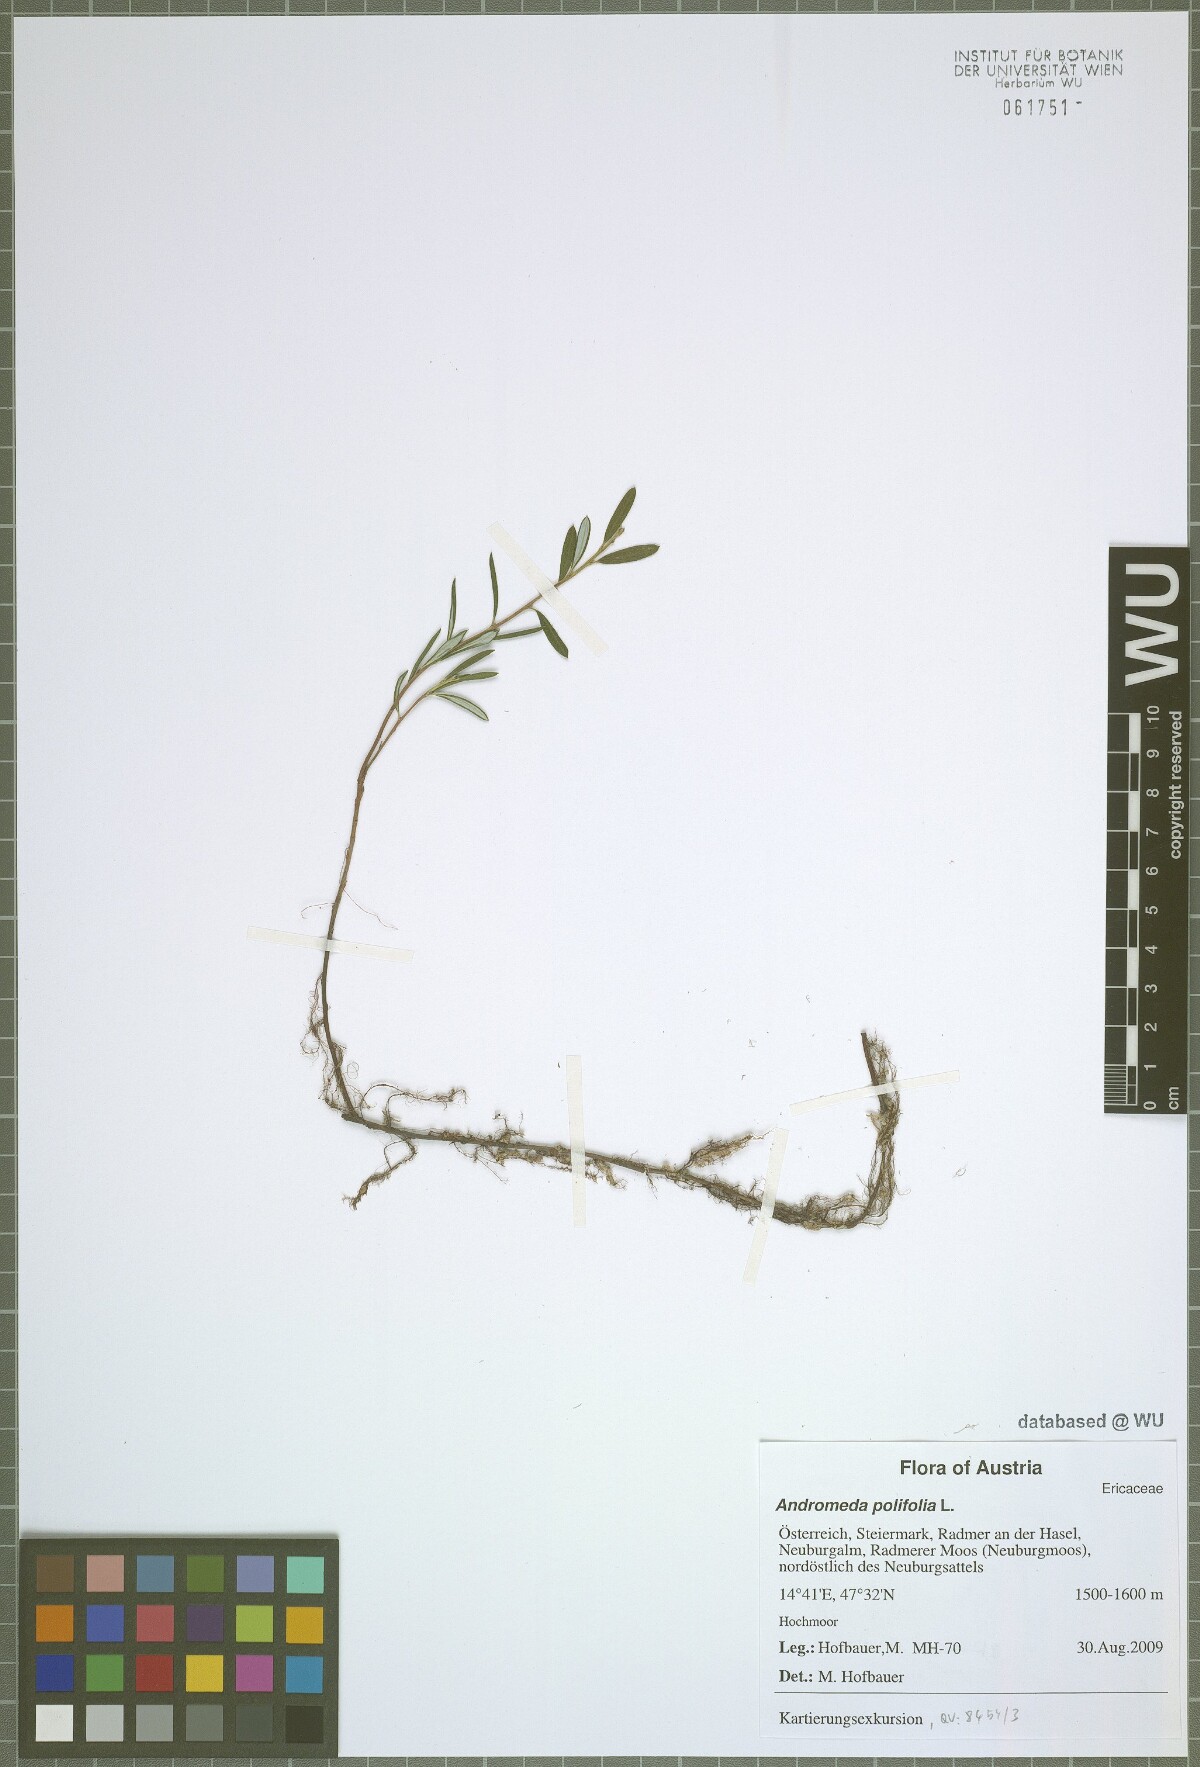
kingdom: Plantae
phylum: Tracheophyta
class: Magnoliopsida
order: Ericales
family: Ericaceae
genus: Andromeda
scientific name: Andromeda polifolia
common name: Bog-rosemary
